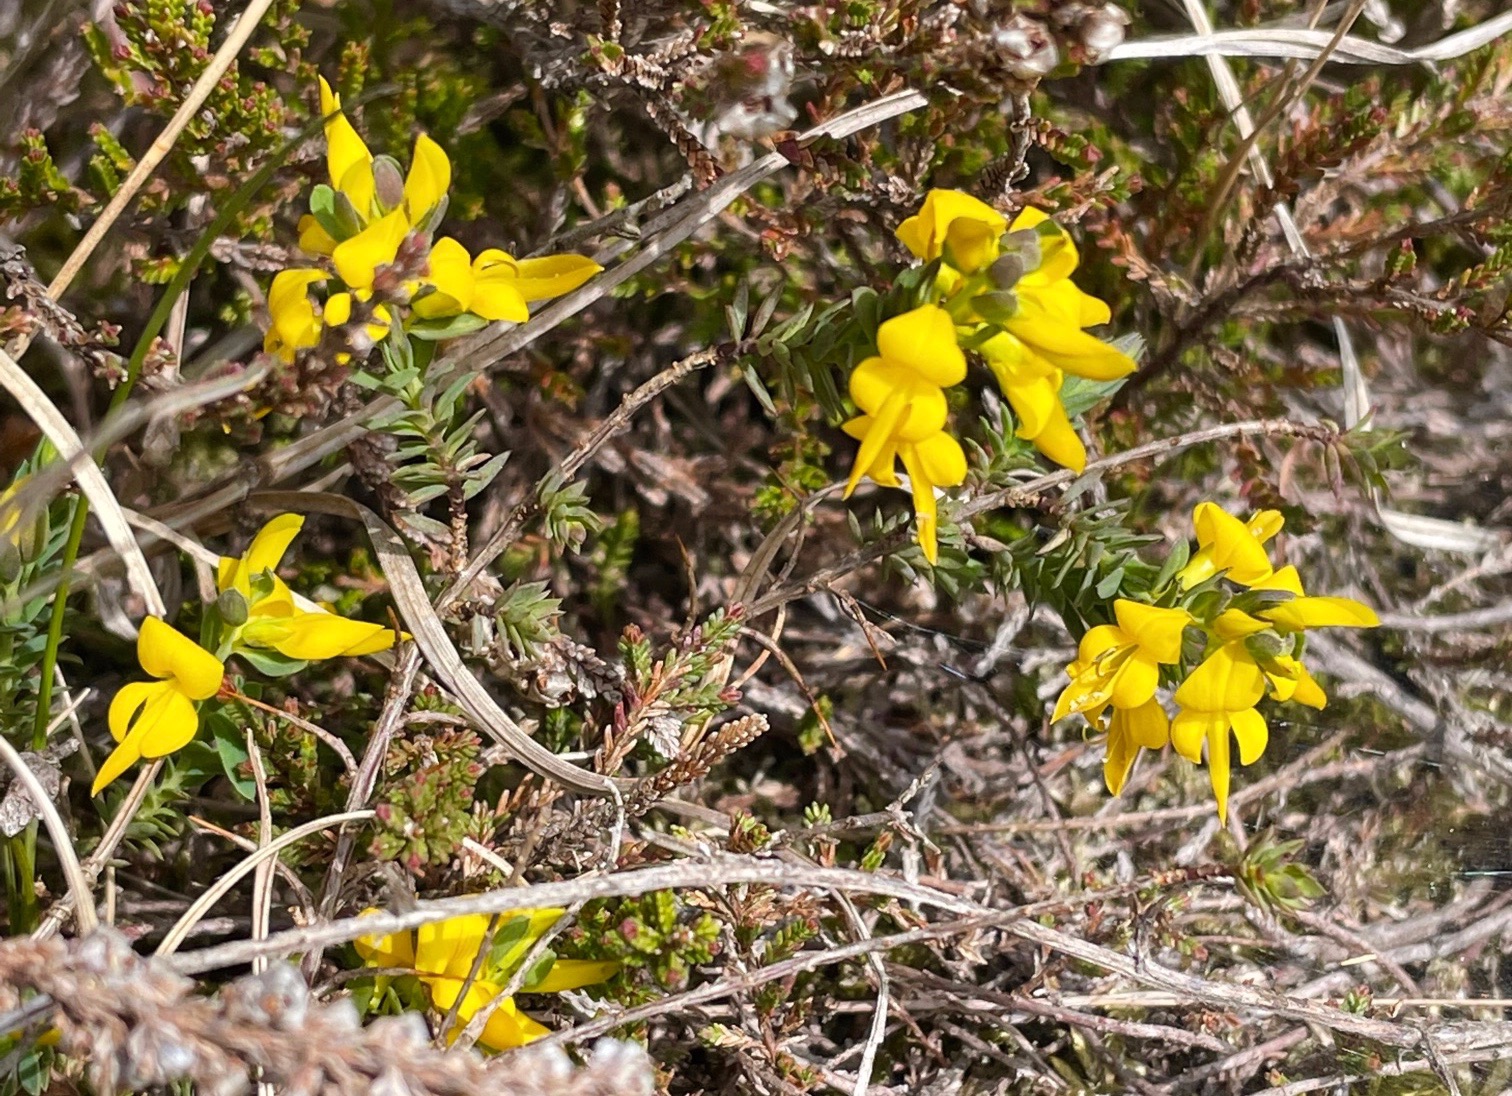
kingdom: Plantae
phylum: Tracheophyta
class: Magnoliopsida
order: Fabales
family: Fabaceae
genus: Genista
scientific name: Genista anglica
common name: Engelsk visse
